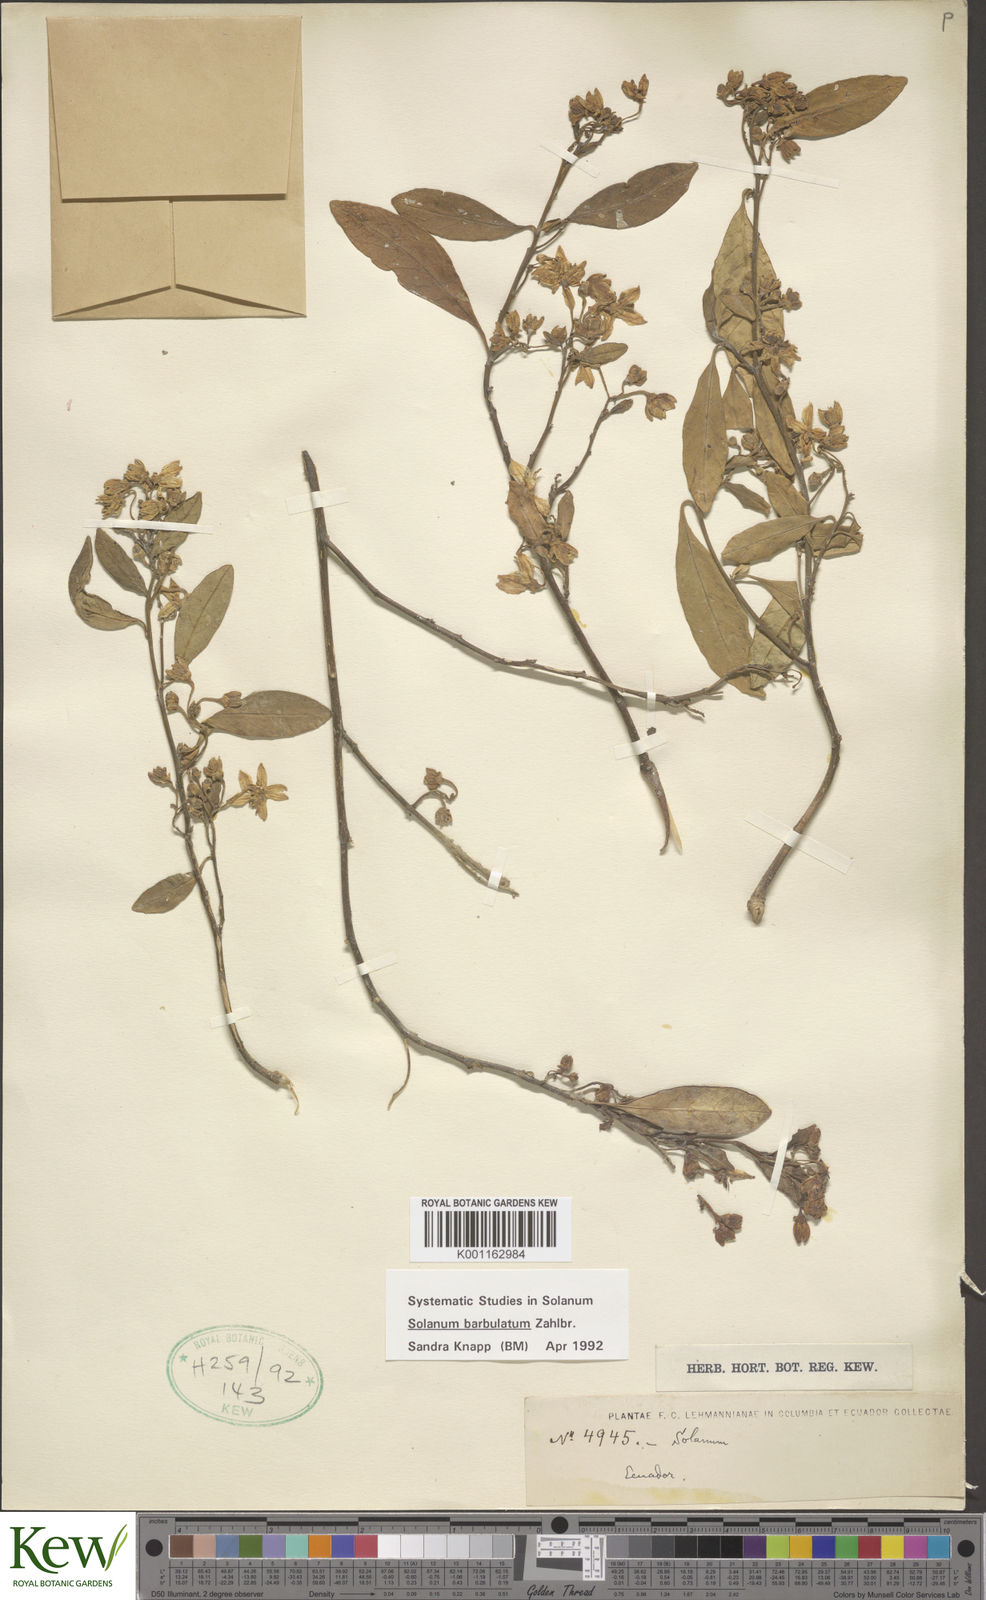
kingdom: Plantae
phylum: Tracheophyta
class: Magnoliopsida
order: Solanales
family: Solanaceae
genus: Solanum
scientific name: Solanum barbulatum
